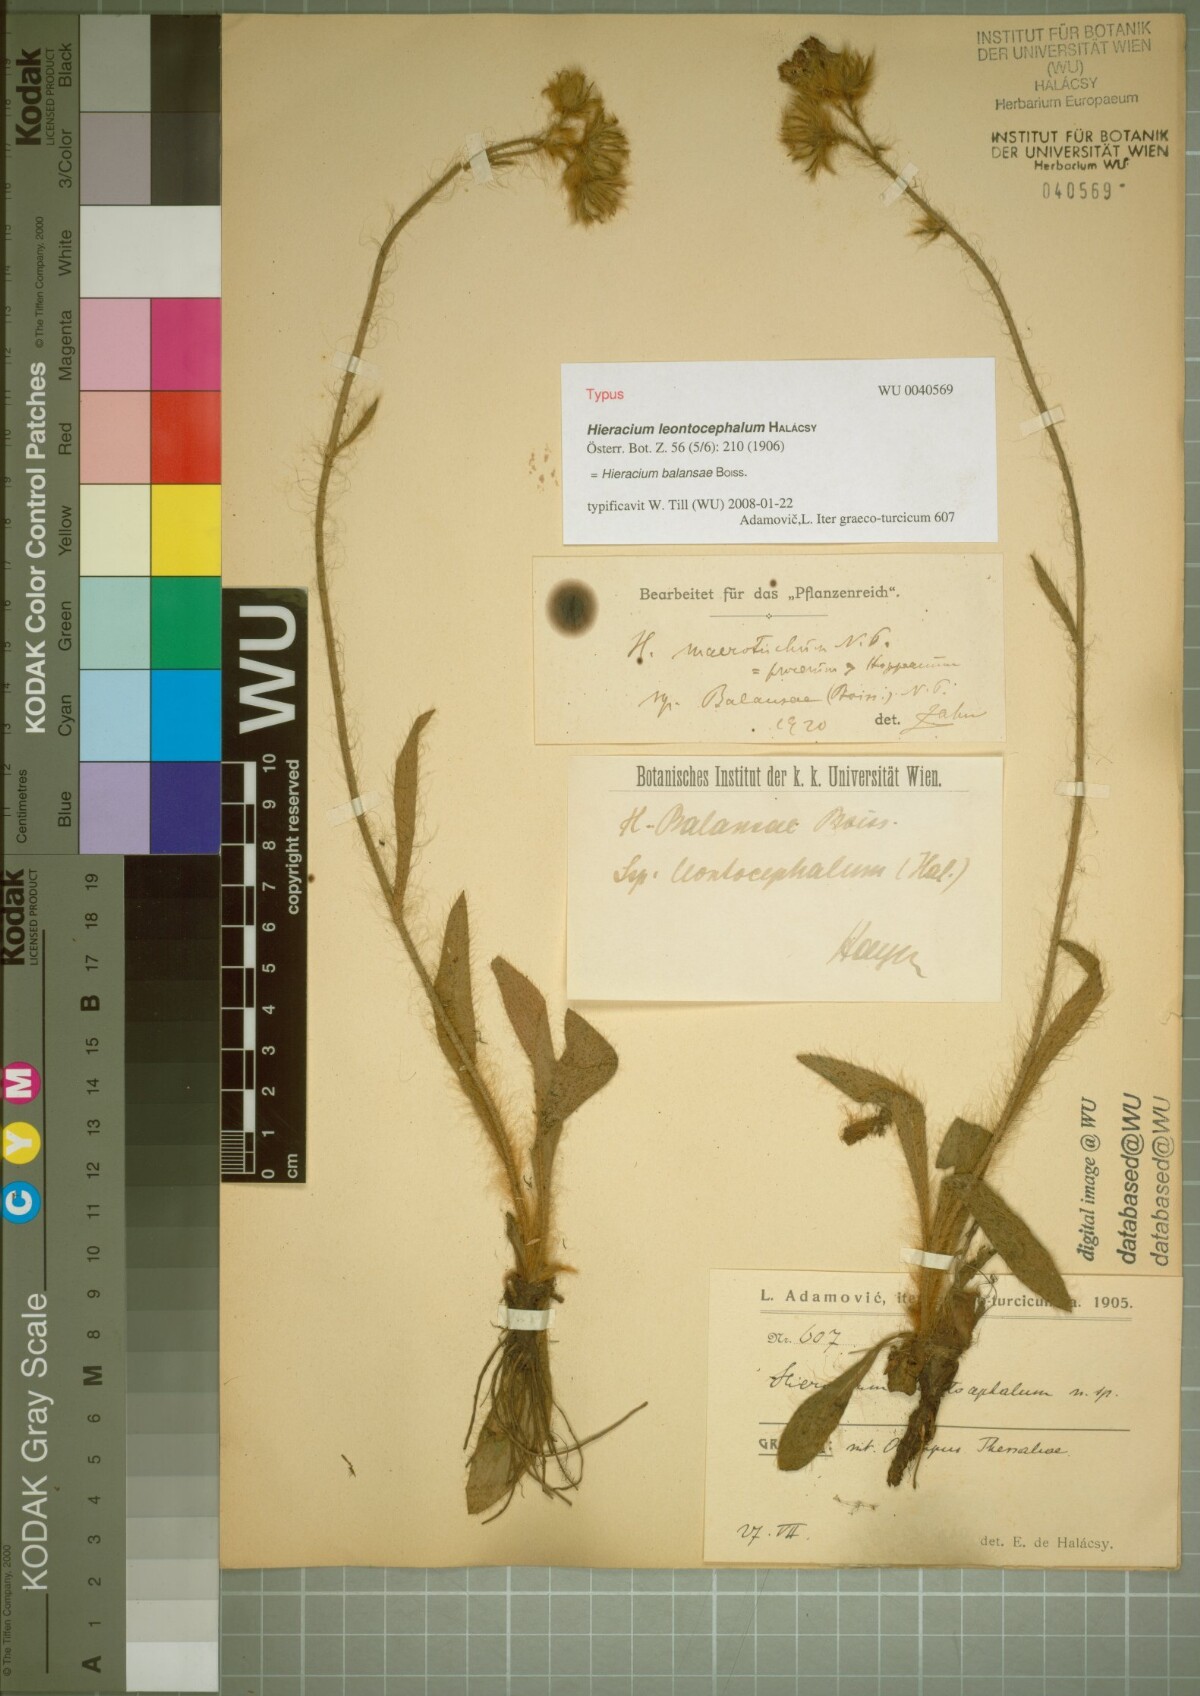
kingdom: Plantae
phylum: Tracheophyta
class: Magnoliopsida
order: Asterales
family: Asteraceae
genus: Pilosella
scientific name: Pilosella balansae
